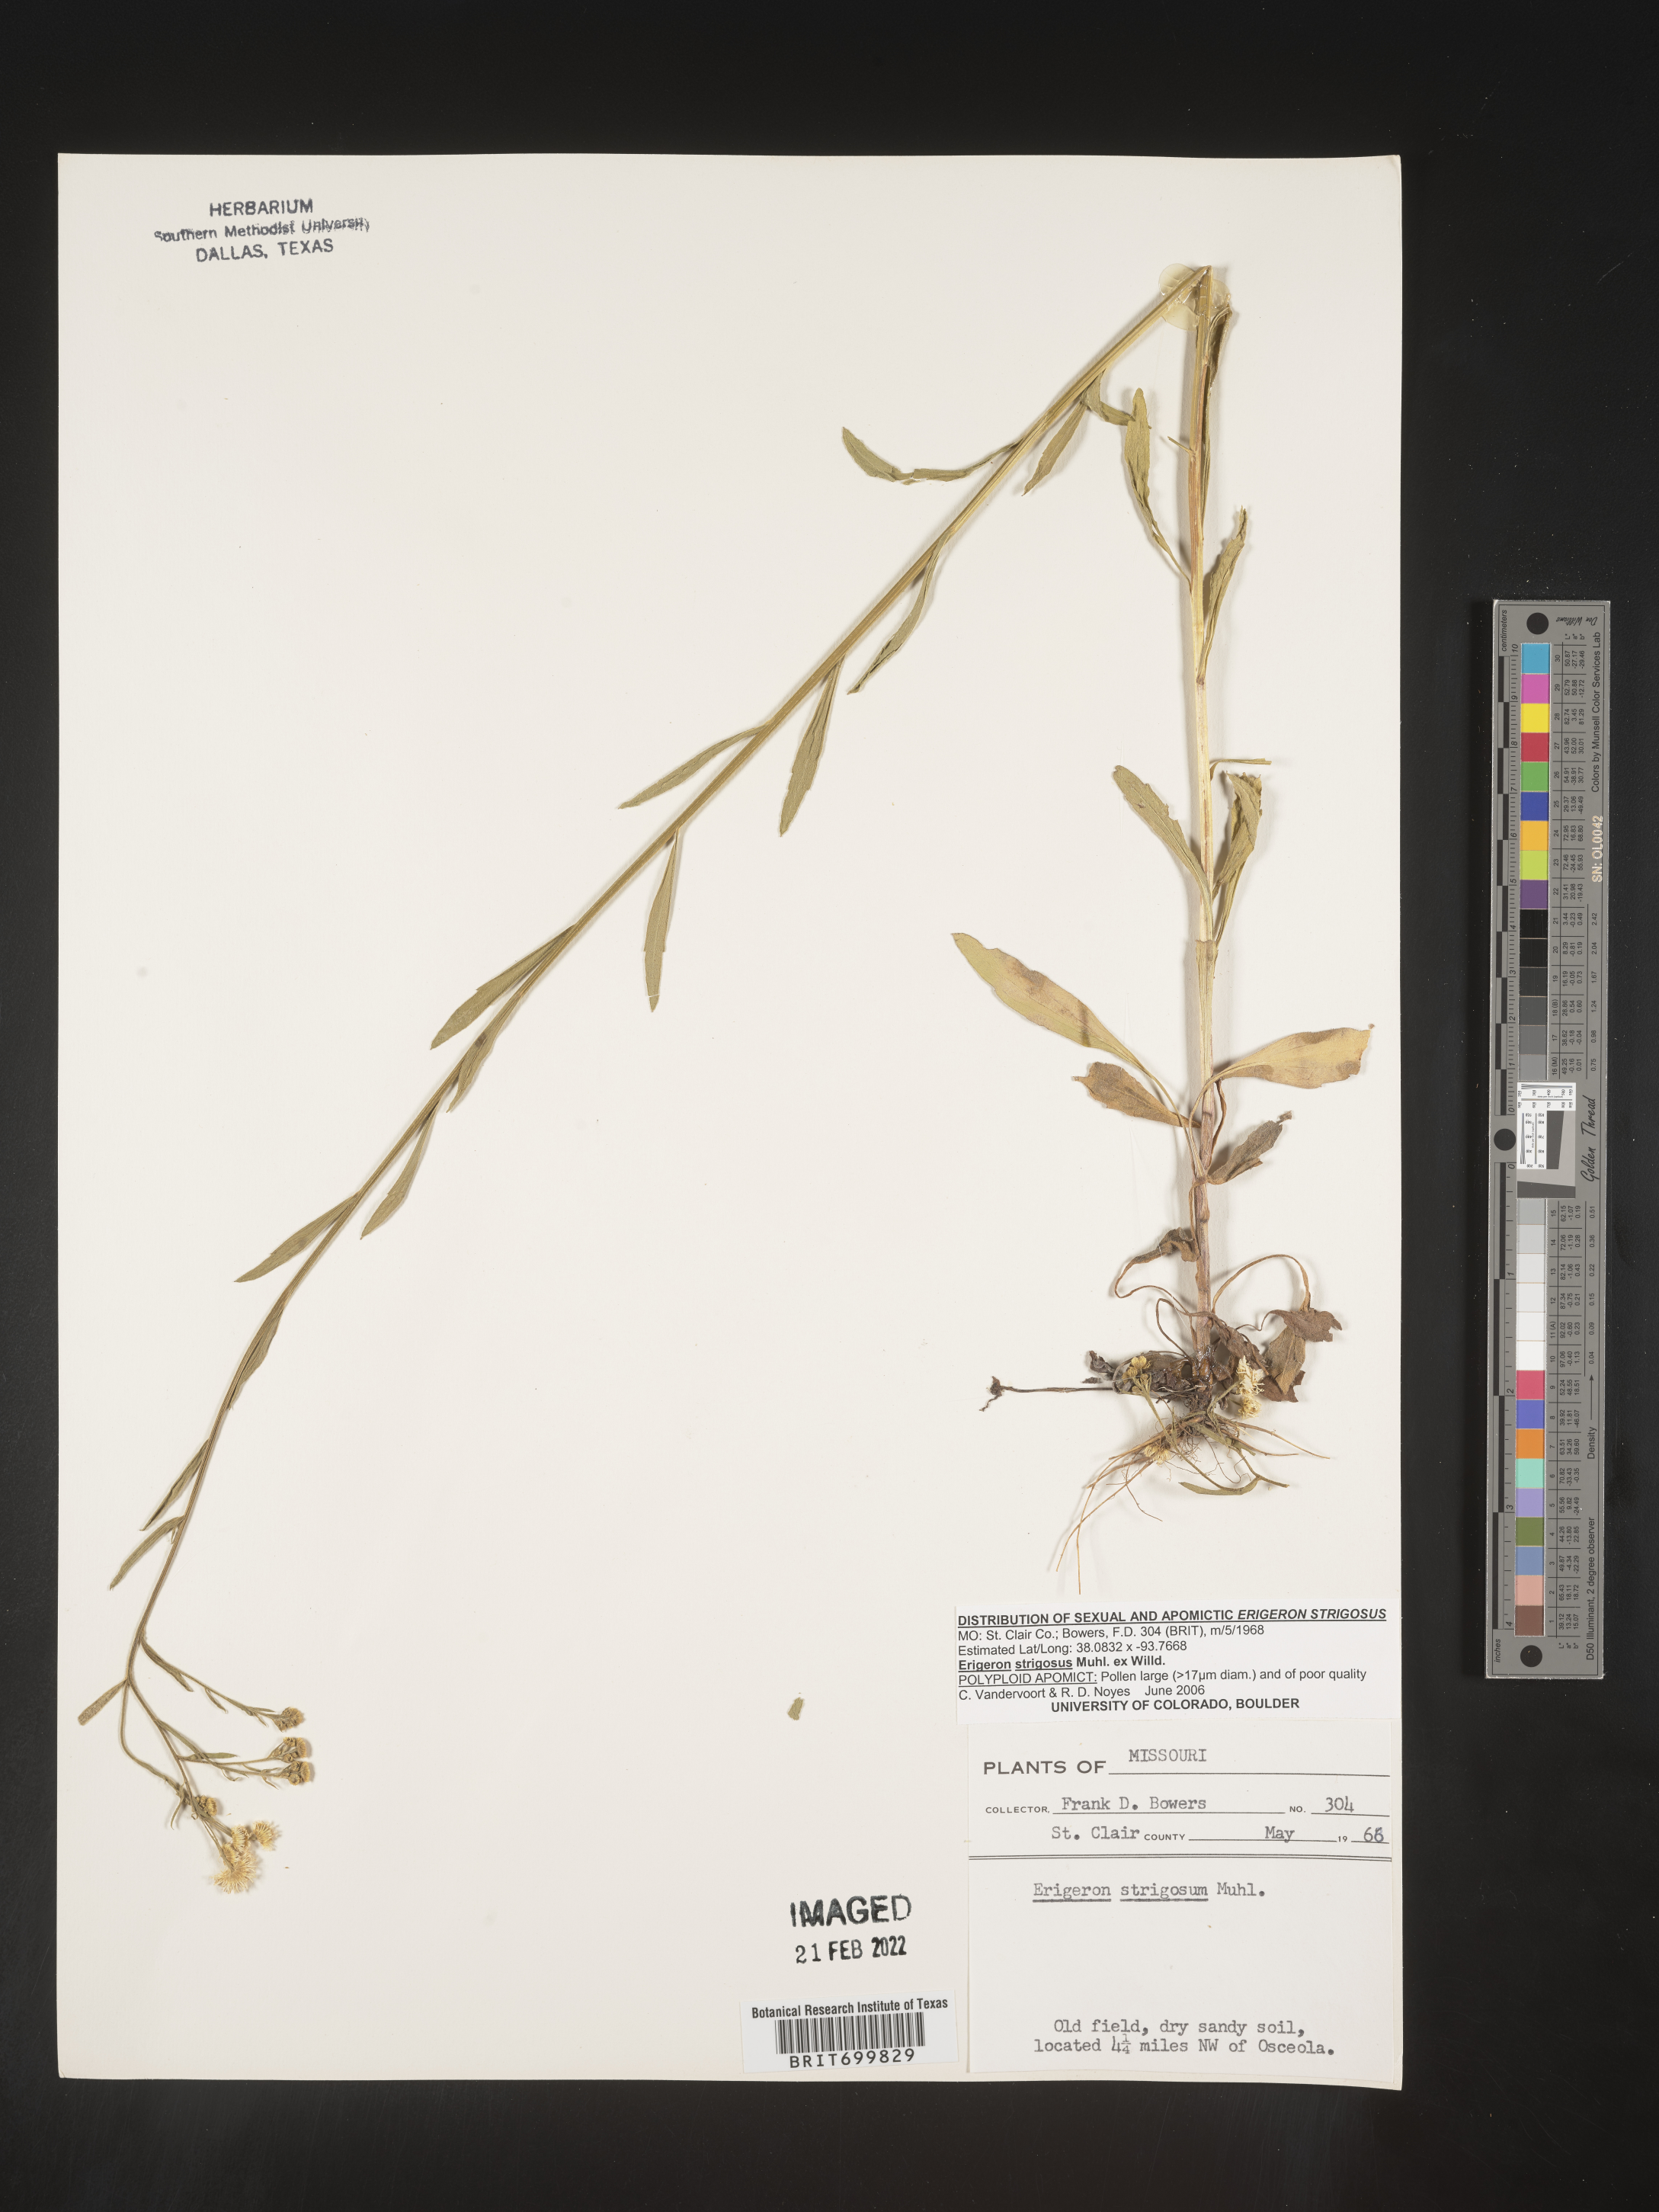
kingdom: Plantae
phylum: Tracheophyta
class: Magnoliopsida
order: Asterales
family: Asteraceae
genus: Erigeron
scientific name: Erigeron strigosus
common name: Common eastern fleabane
